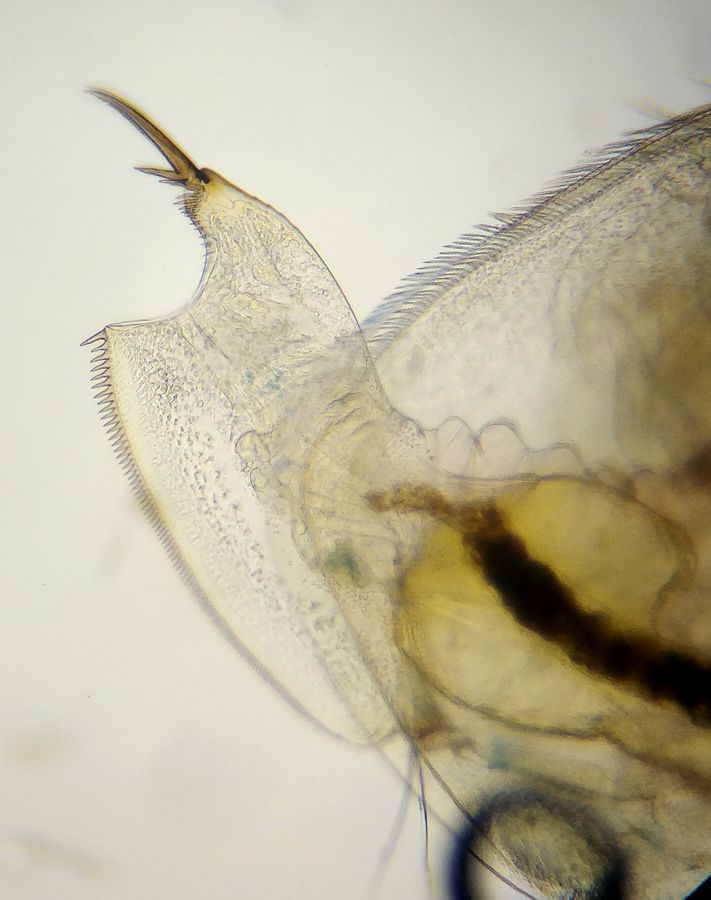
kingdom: Animalia
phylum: Arthropoda
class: Branchiopoda
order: Diplostraca
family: Eurycercidae
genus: Eurycercus
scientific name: Eurycercus lamellatus
